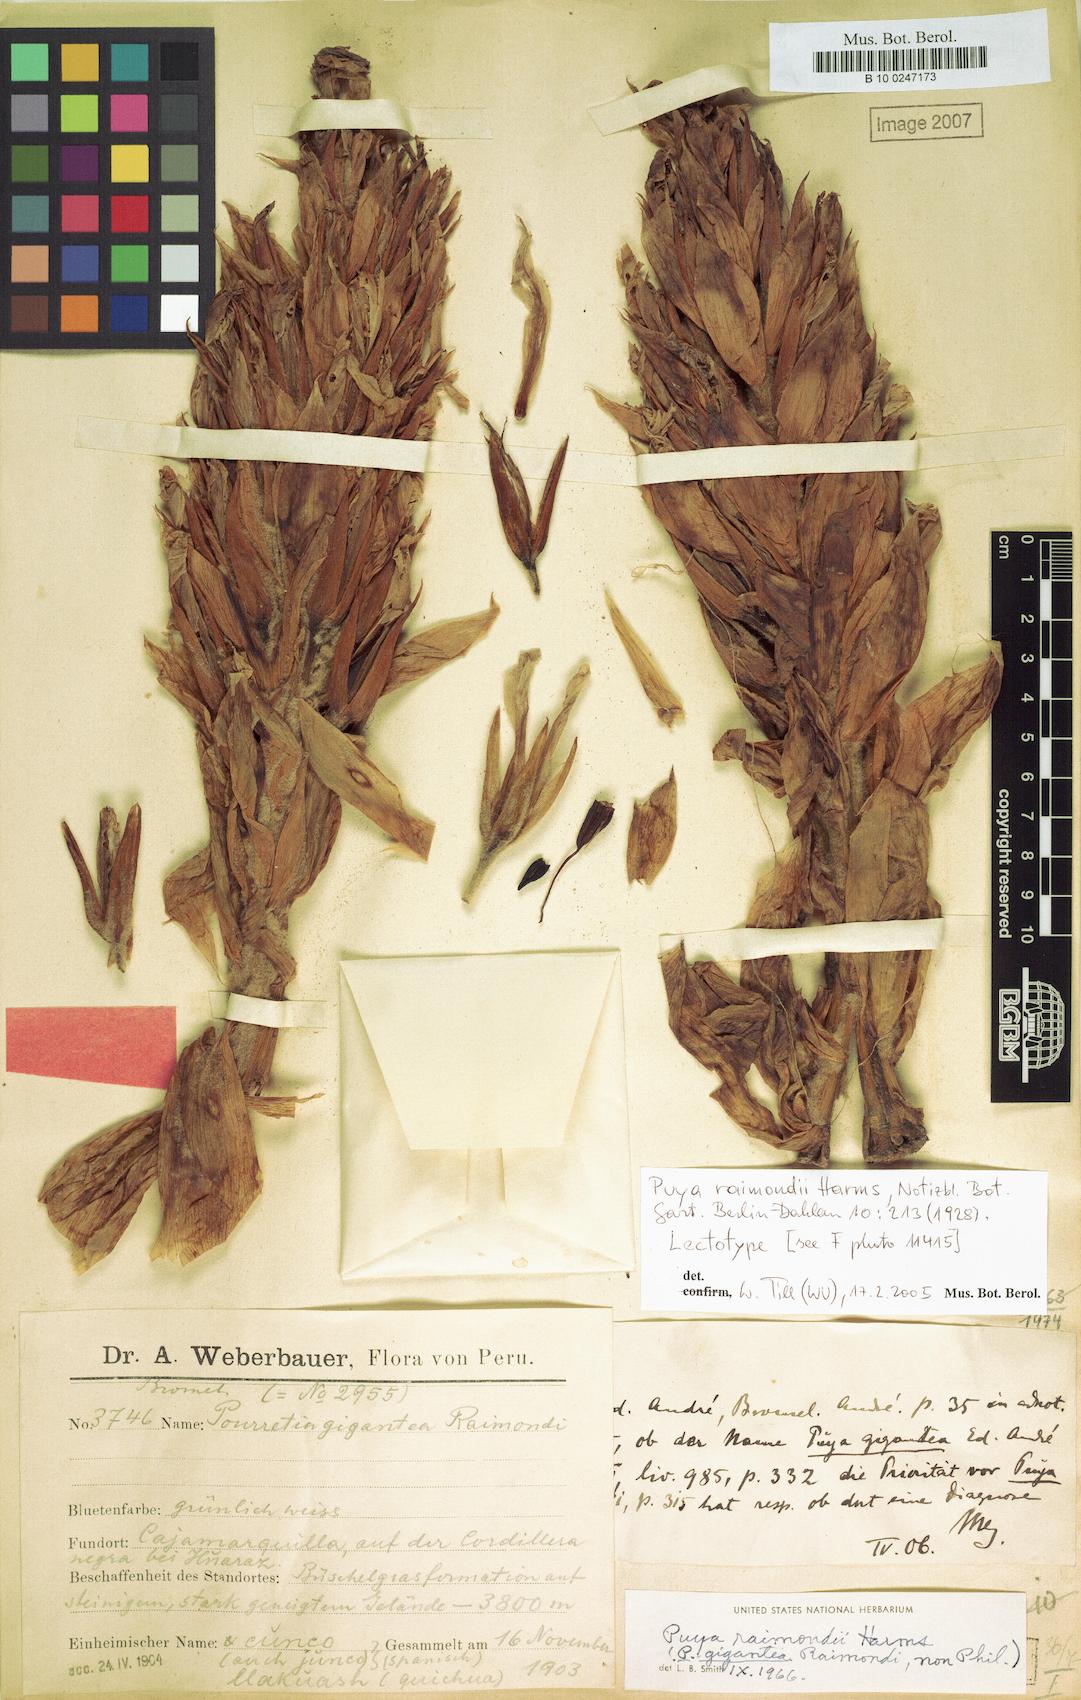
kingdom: Plantae
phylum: Tracheophyta
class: Liliopsida
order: Poales
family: Bromeliaceae
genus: Puya
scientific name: Puya raimondii
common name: Queen of the andes
